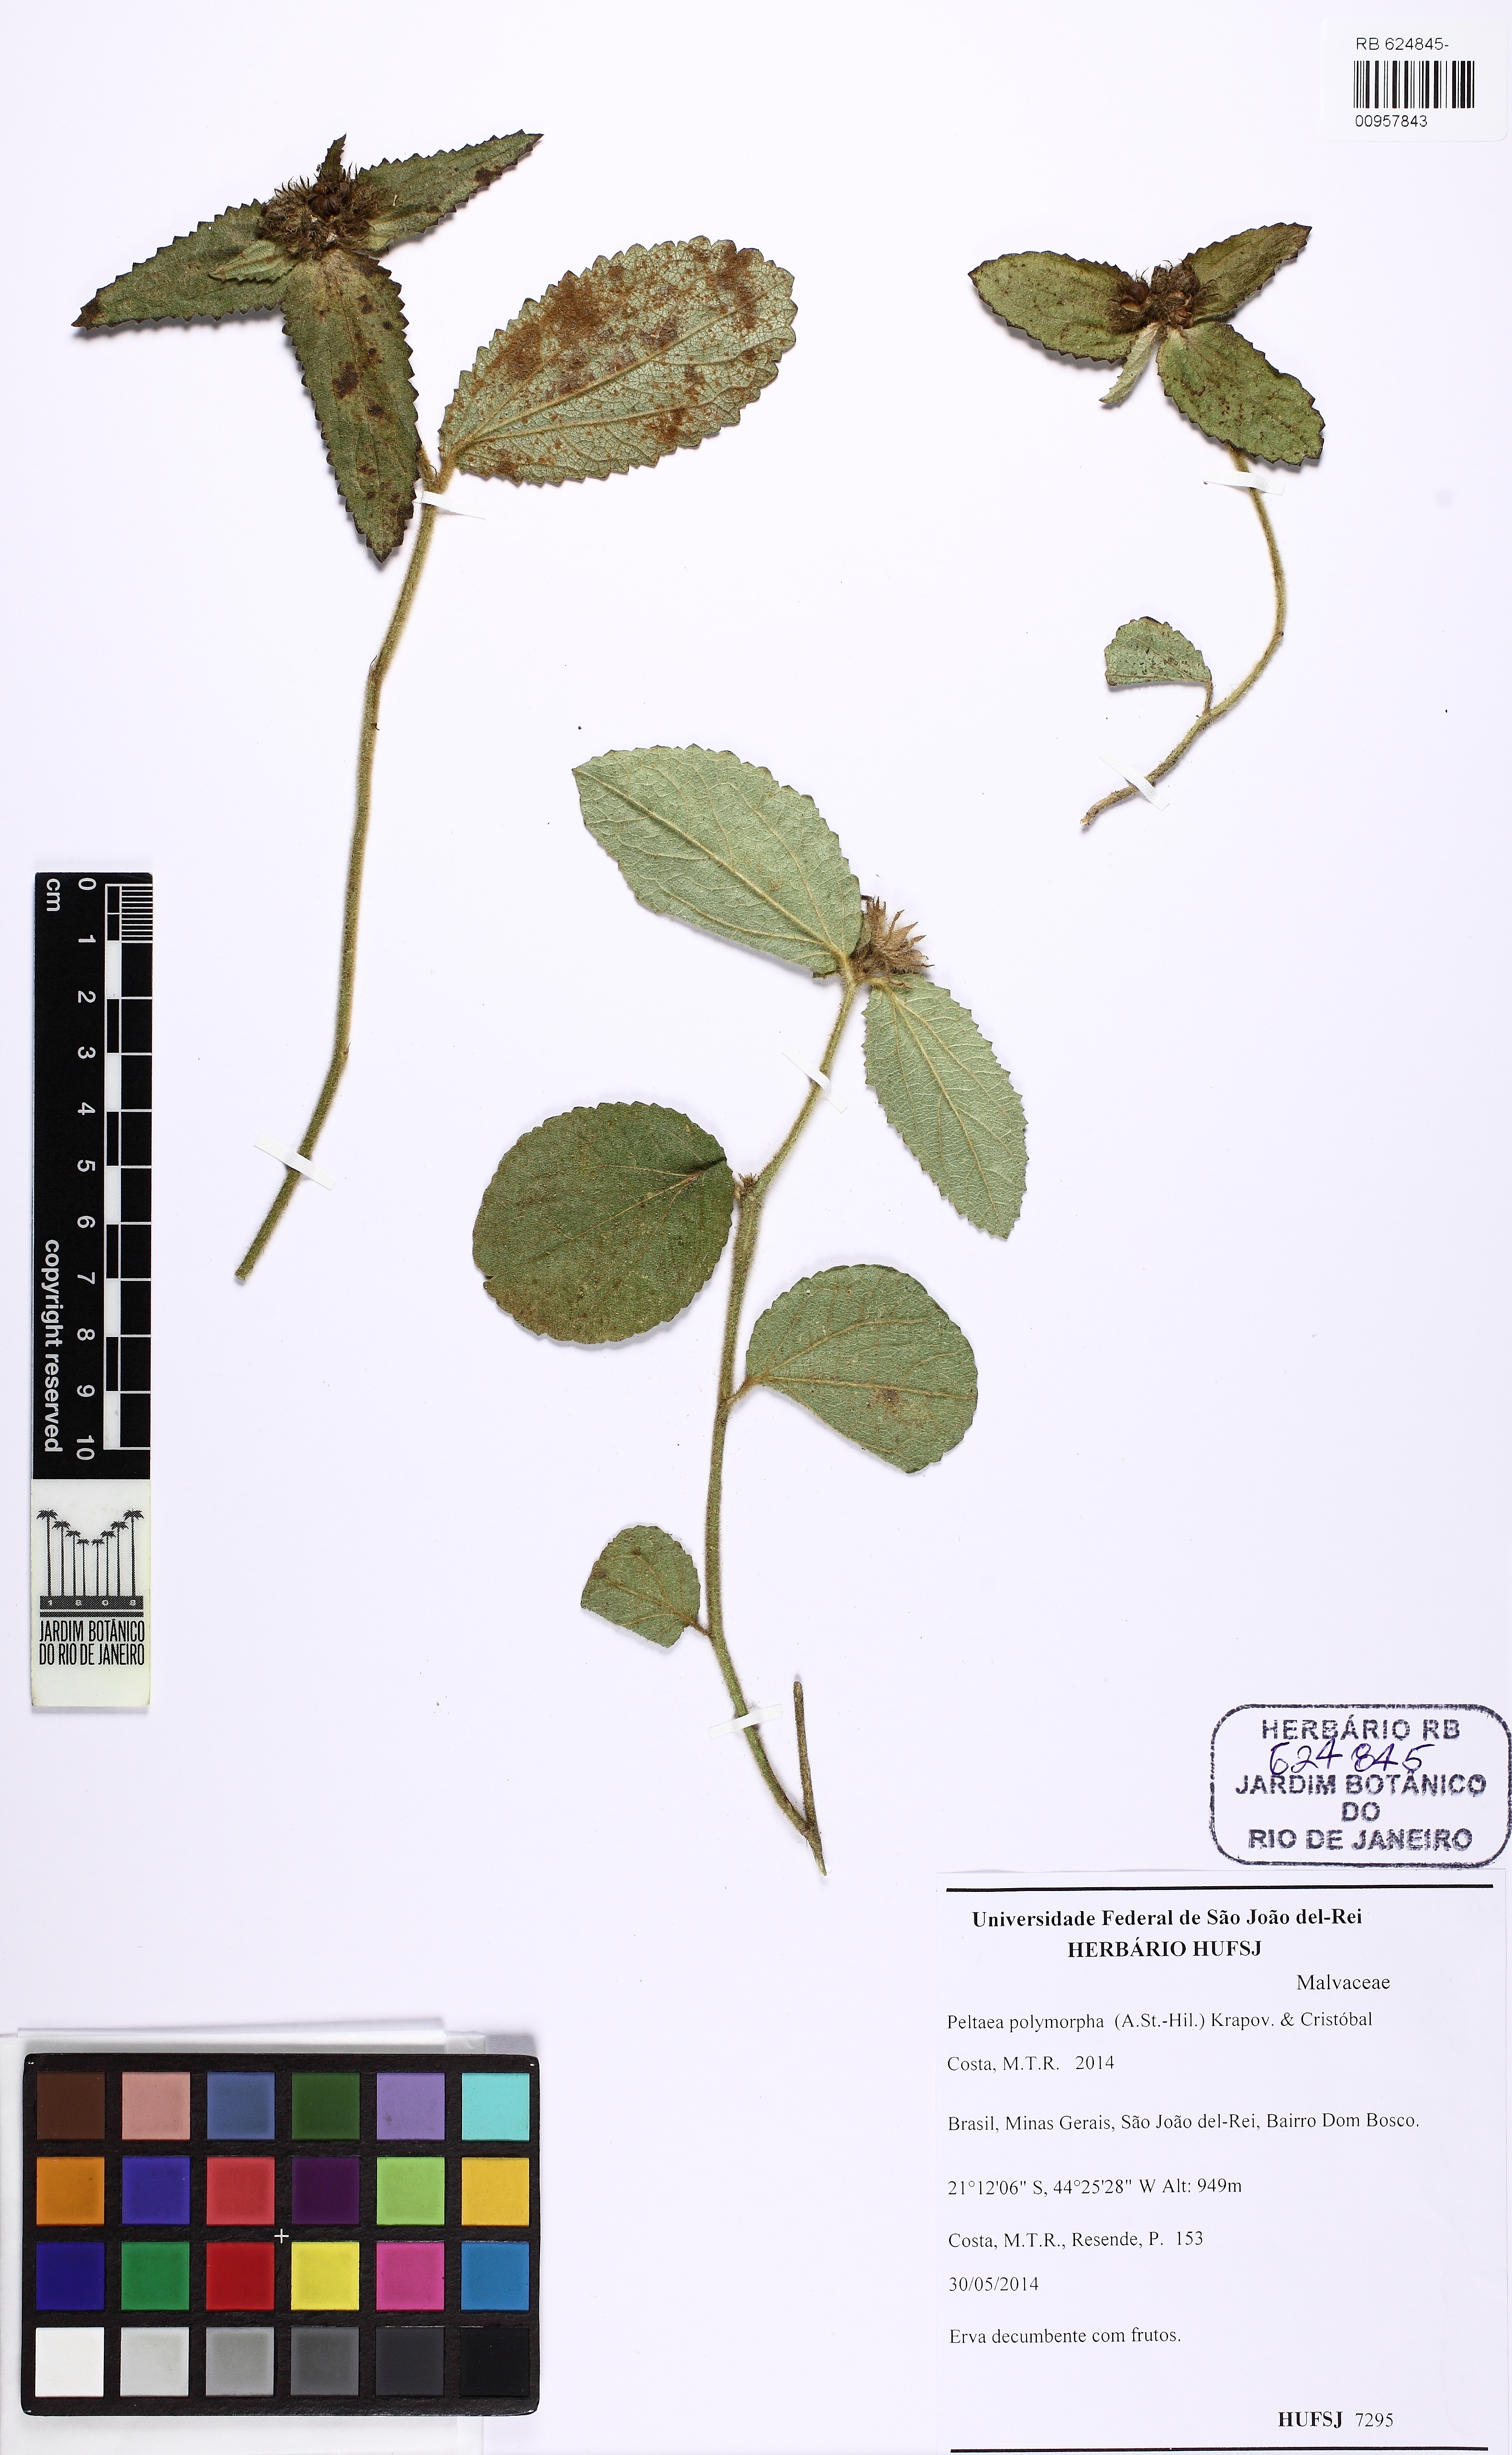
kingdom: Plantae
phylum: Tracheophyta
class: Magnoliopsida
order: Malvales
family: Malvaceae
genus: Peltaea
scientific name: Peltaea polymorpha
